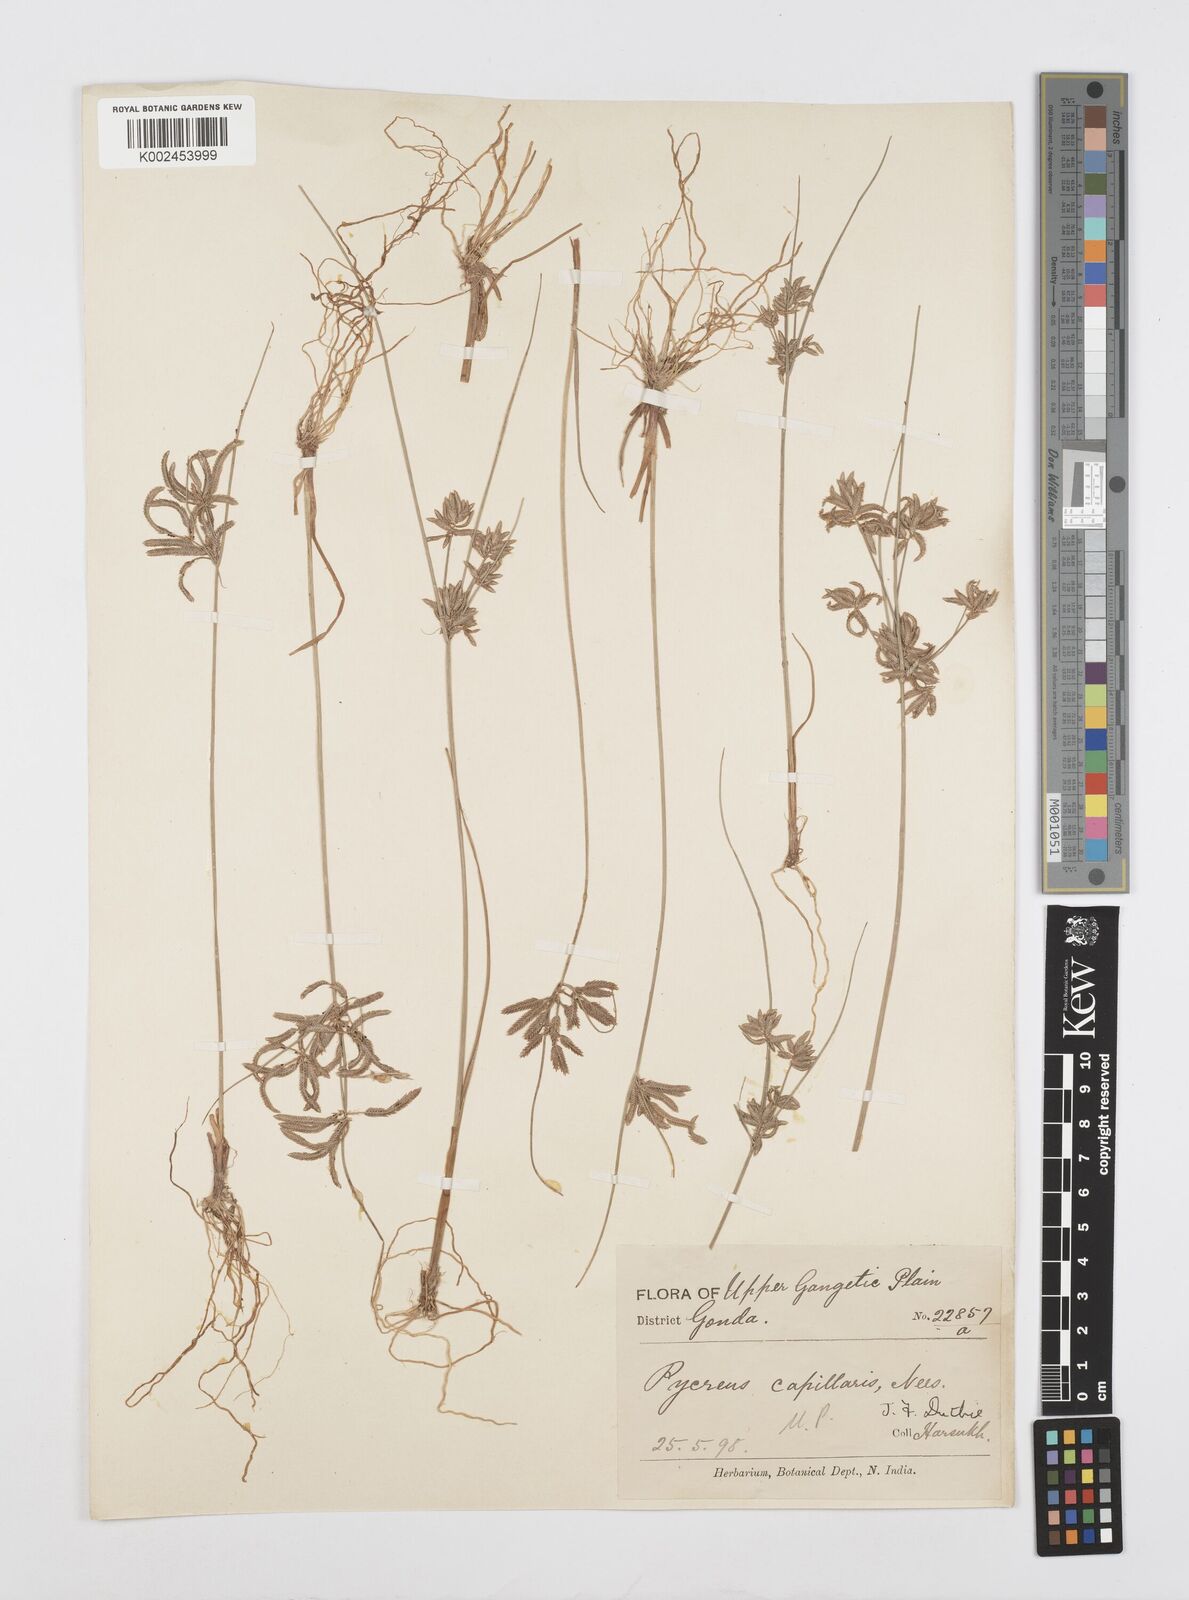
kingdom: Plantae
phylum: Tracheophyta
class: Liliopsida
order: Poales
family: Cyperaceae
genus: Cyperus
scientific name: Cyperus flavidus
